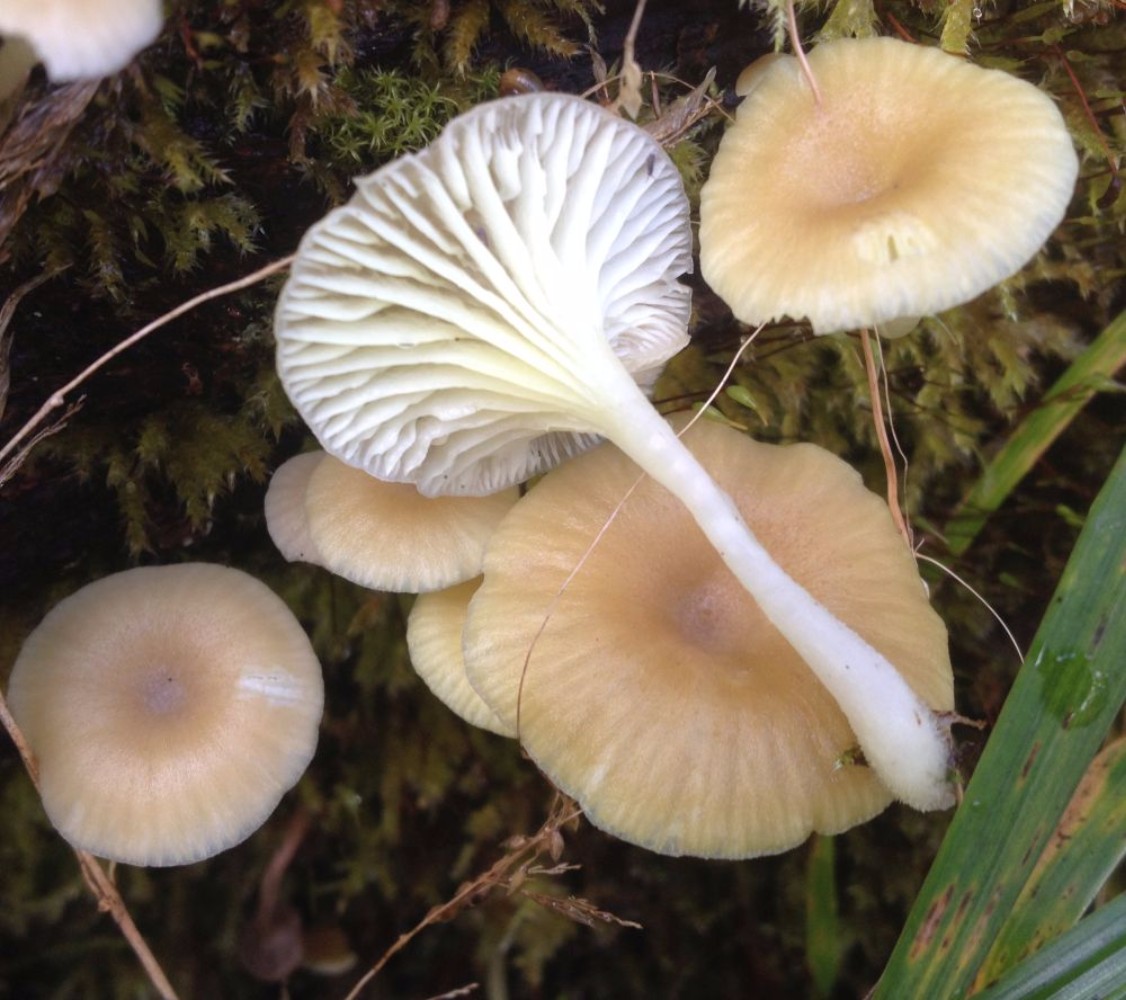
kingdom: Fungi
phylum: Basidiomycota
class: Agaricomycetes
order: Agaricales
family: Hygrophoraceae
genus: Chrysomphalina
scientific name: Chrysomphalina grossula
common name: stød-gyldenblad
